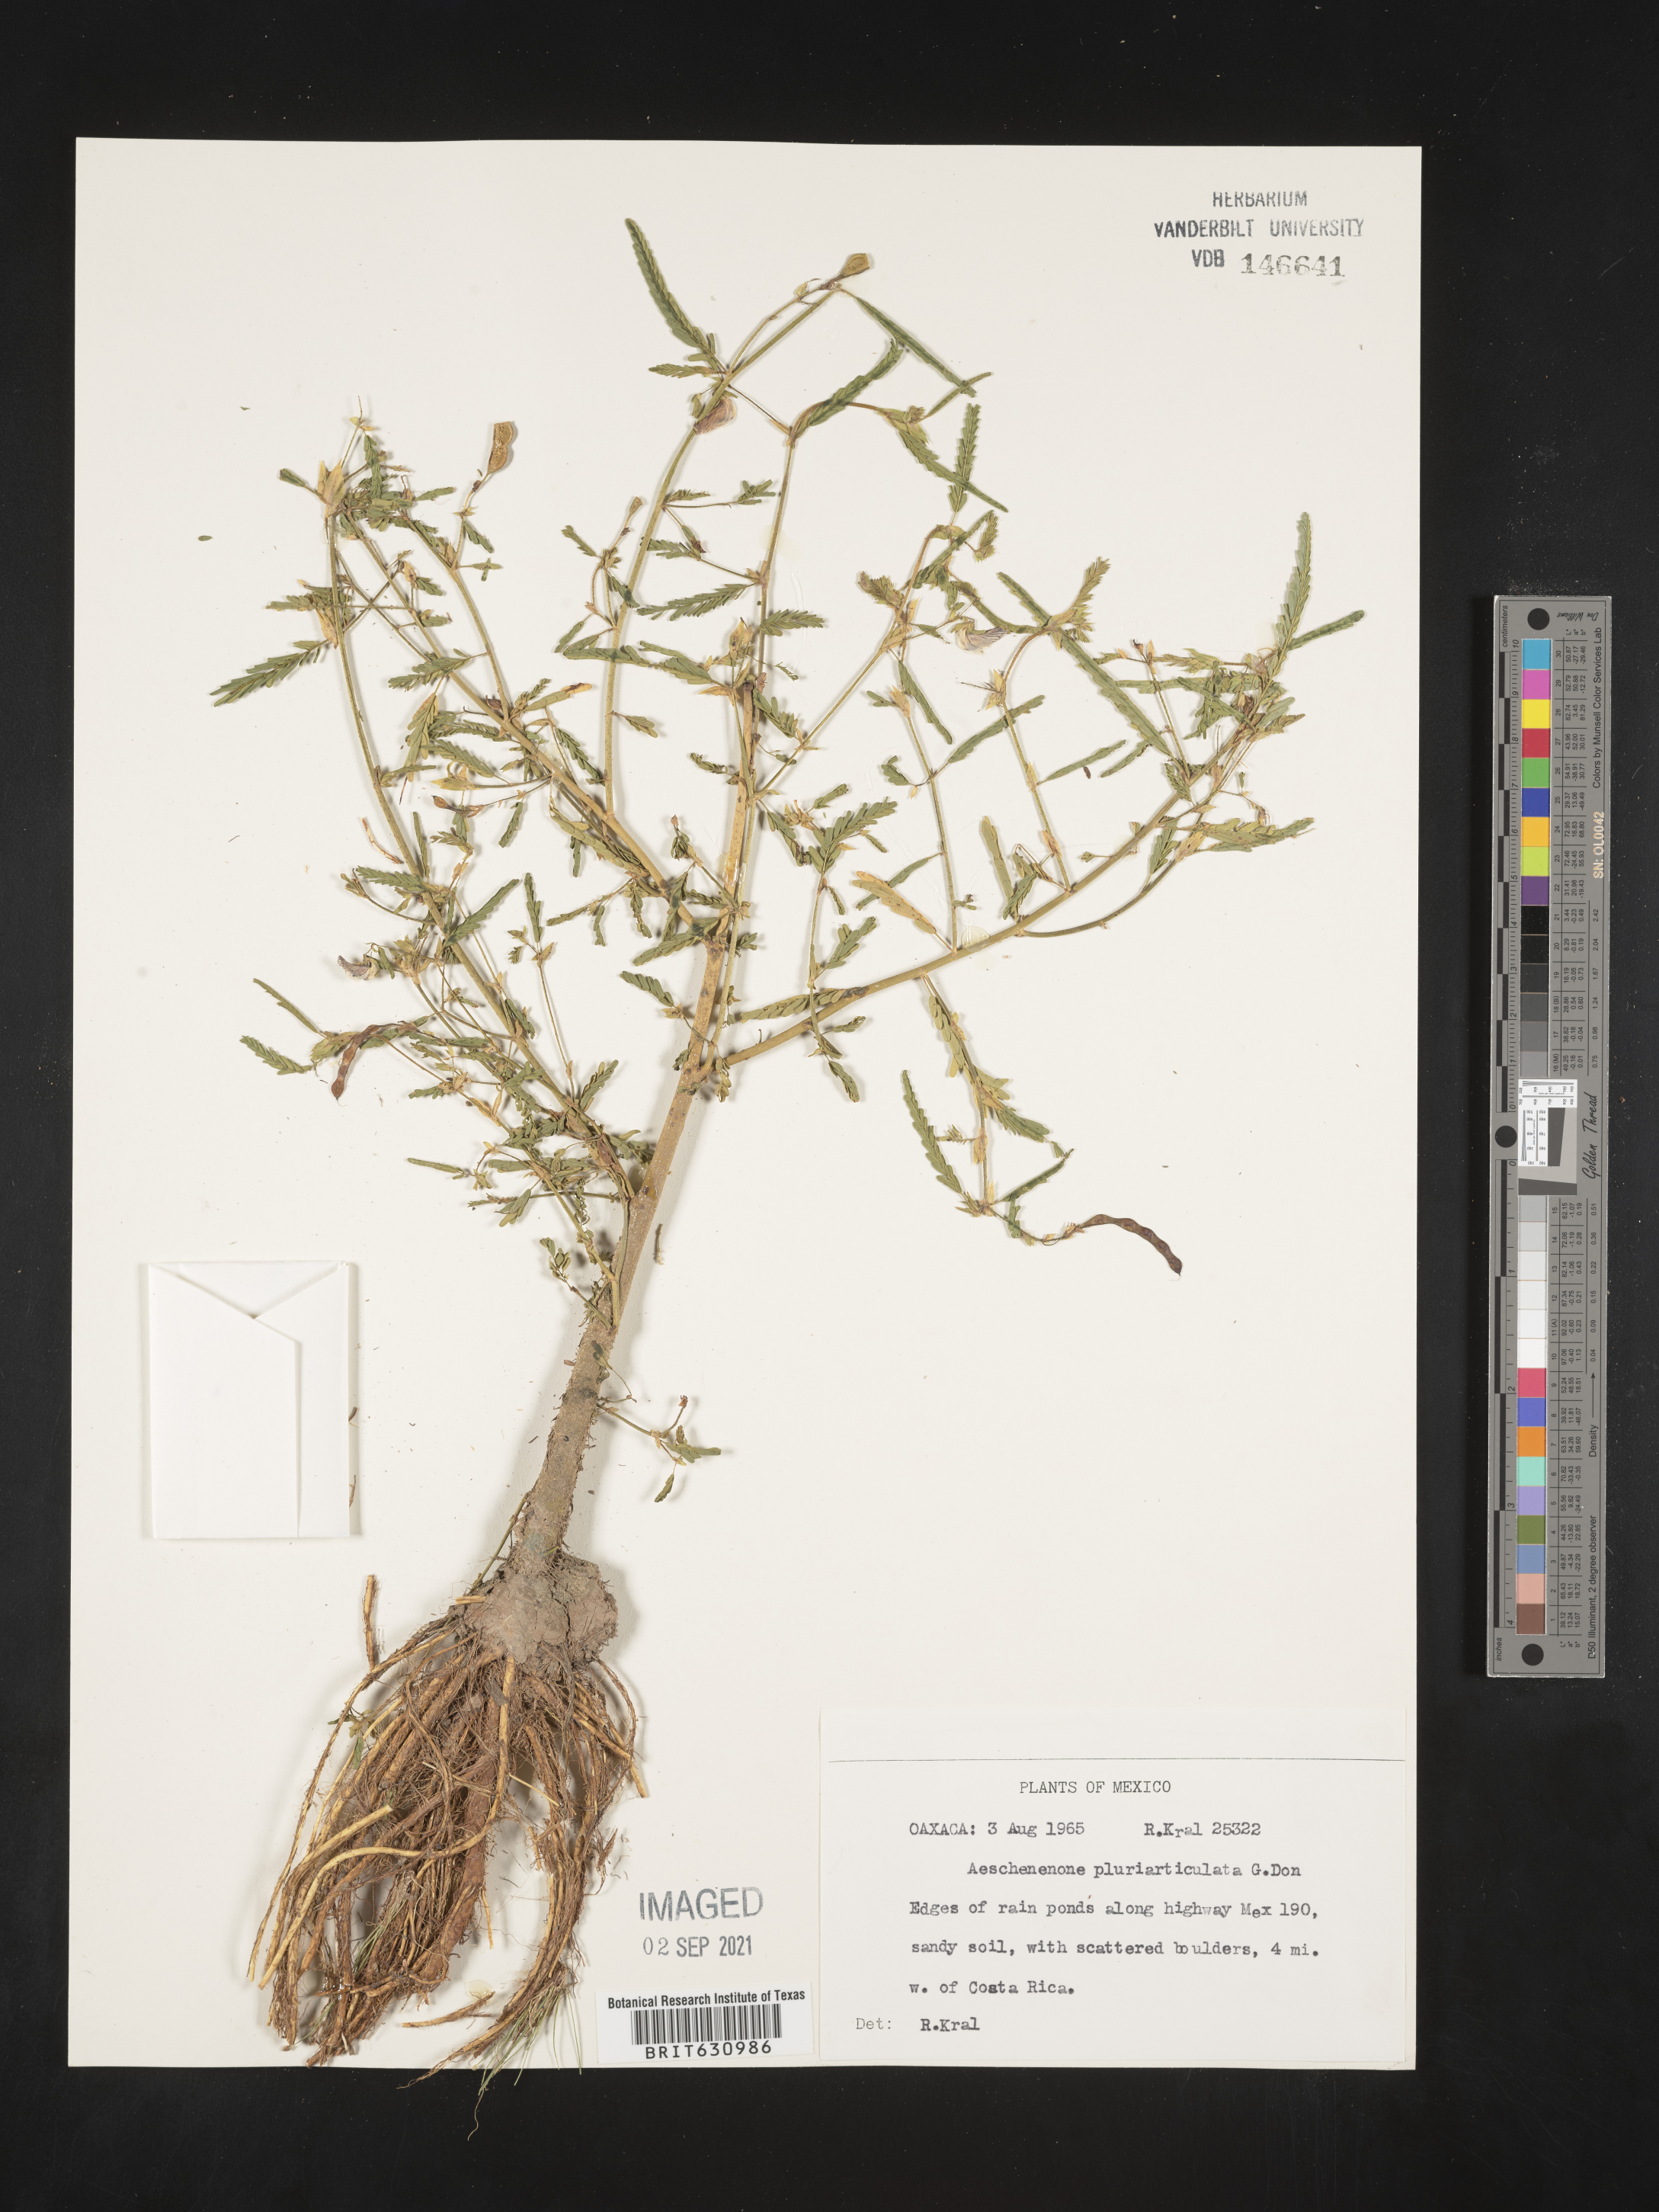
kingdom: Plantae
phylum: Tracheophyta
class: Magnoliopsida
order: Fabales
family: Fabaceae
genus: Aeschynomene
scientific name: Aeschynomene
